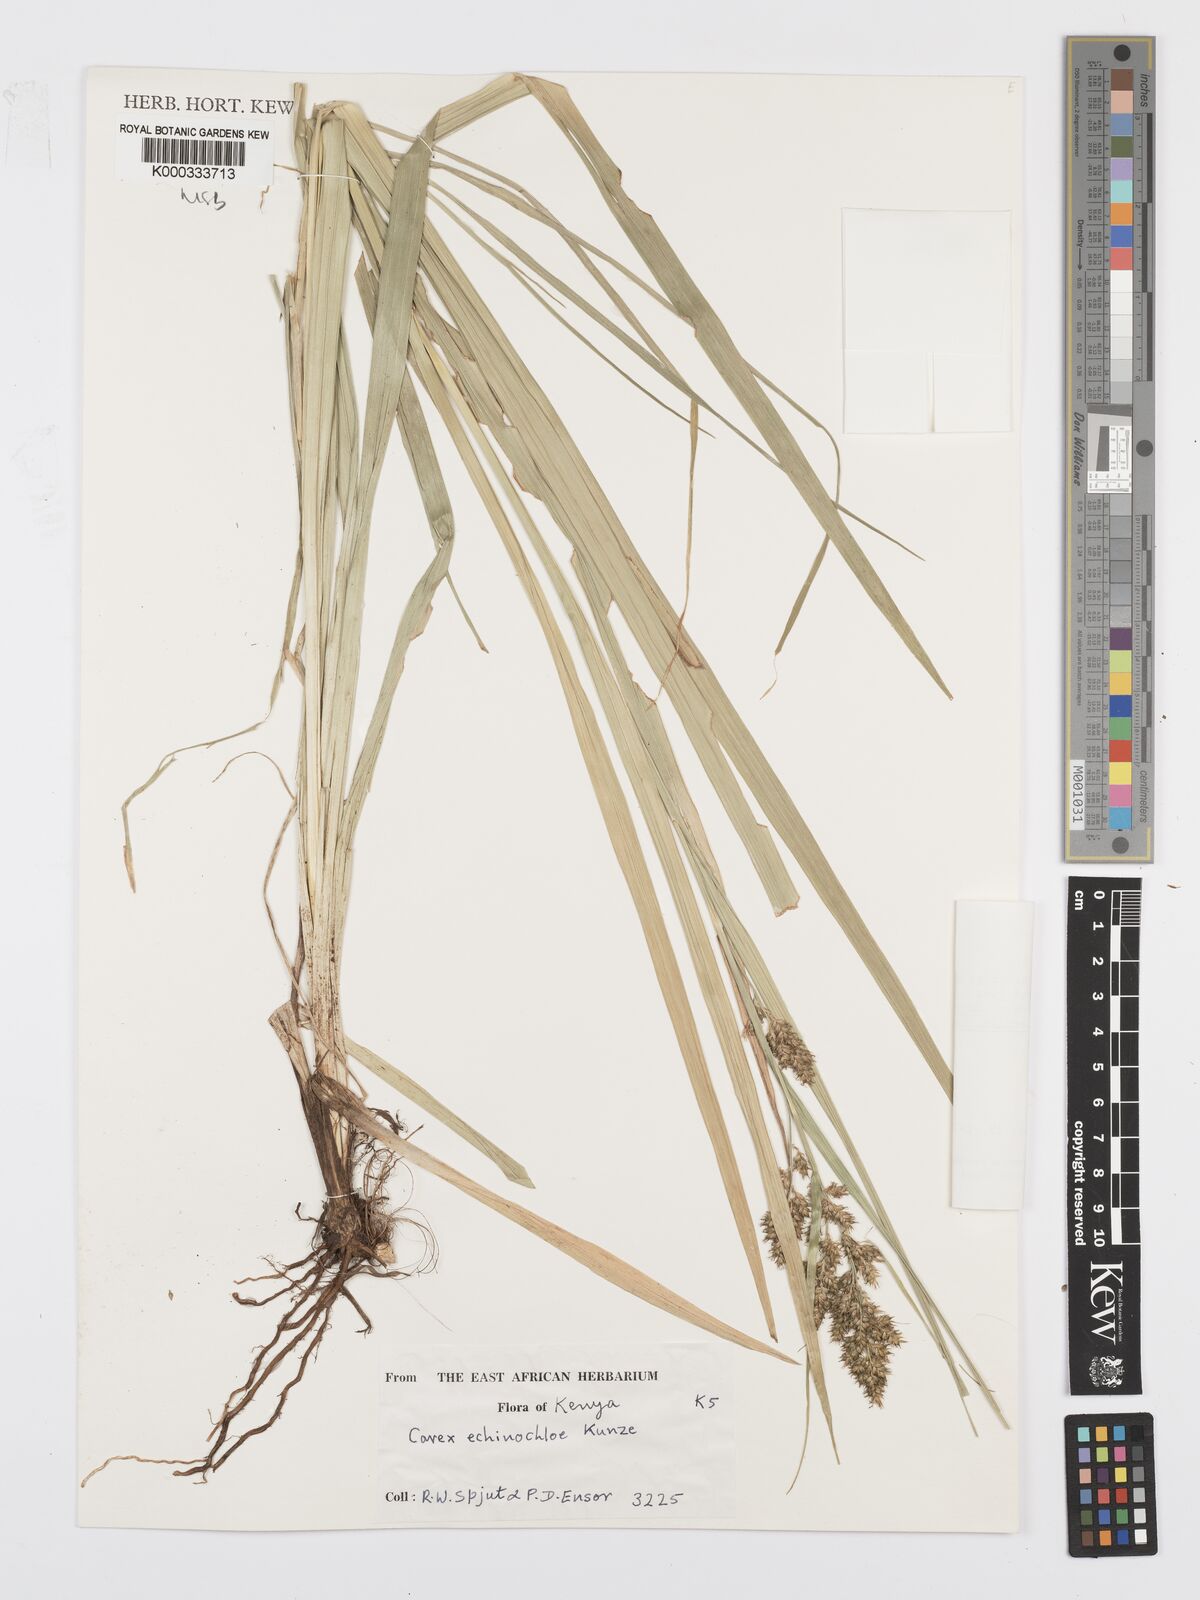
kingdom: Plantae
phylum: Tracheophyta
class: Liliopsida
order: Poales
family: Cyperaceae
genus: Carex
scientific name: Carex echinochloe
